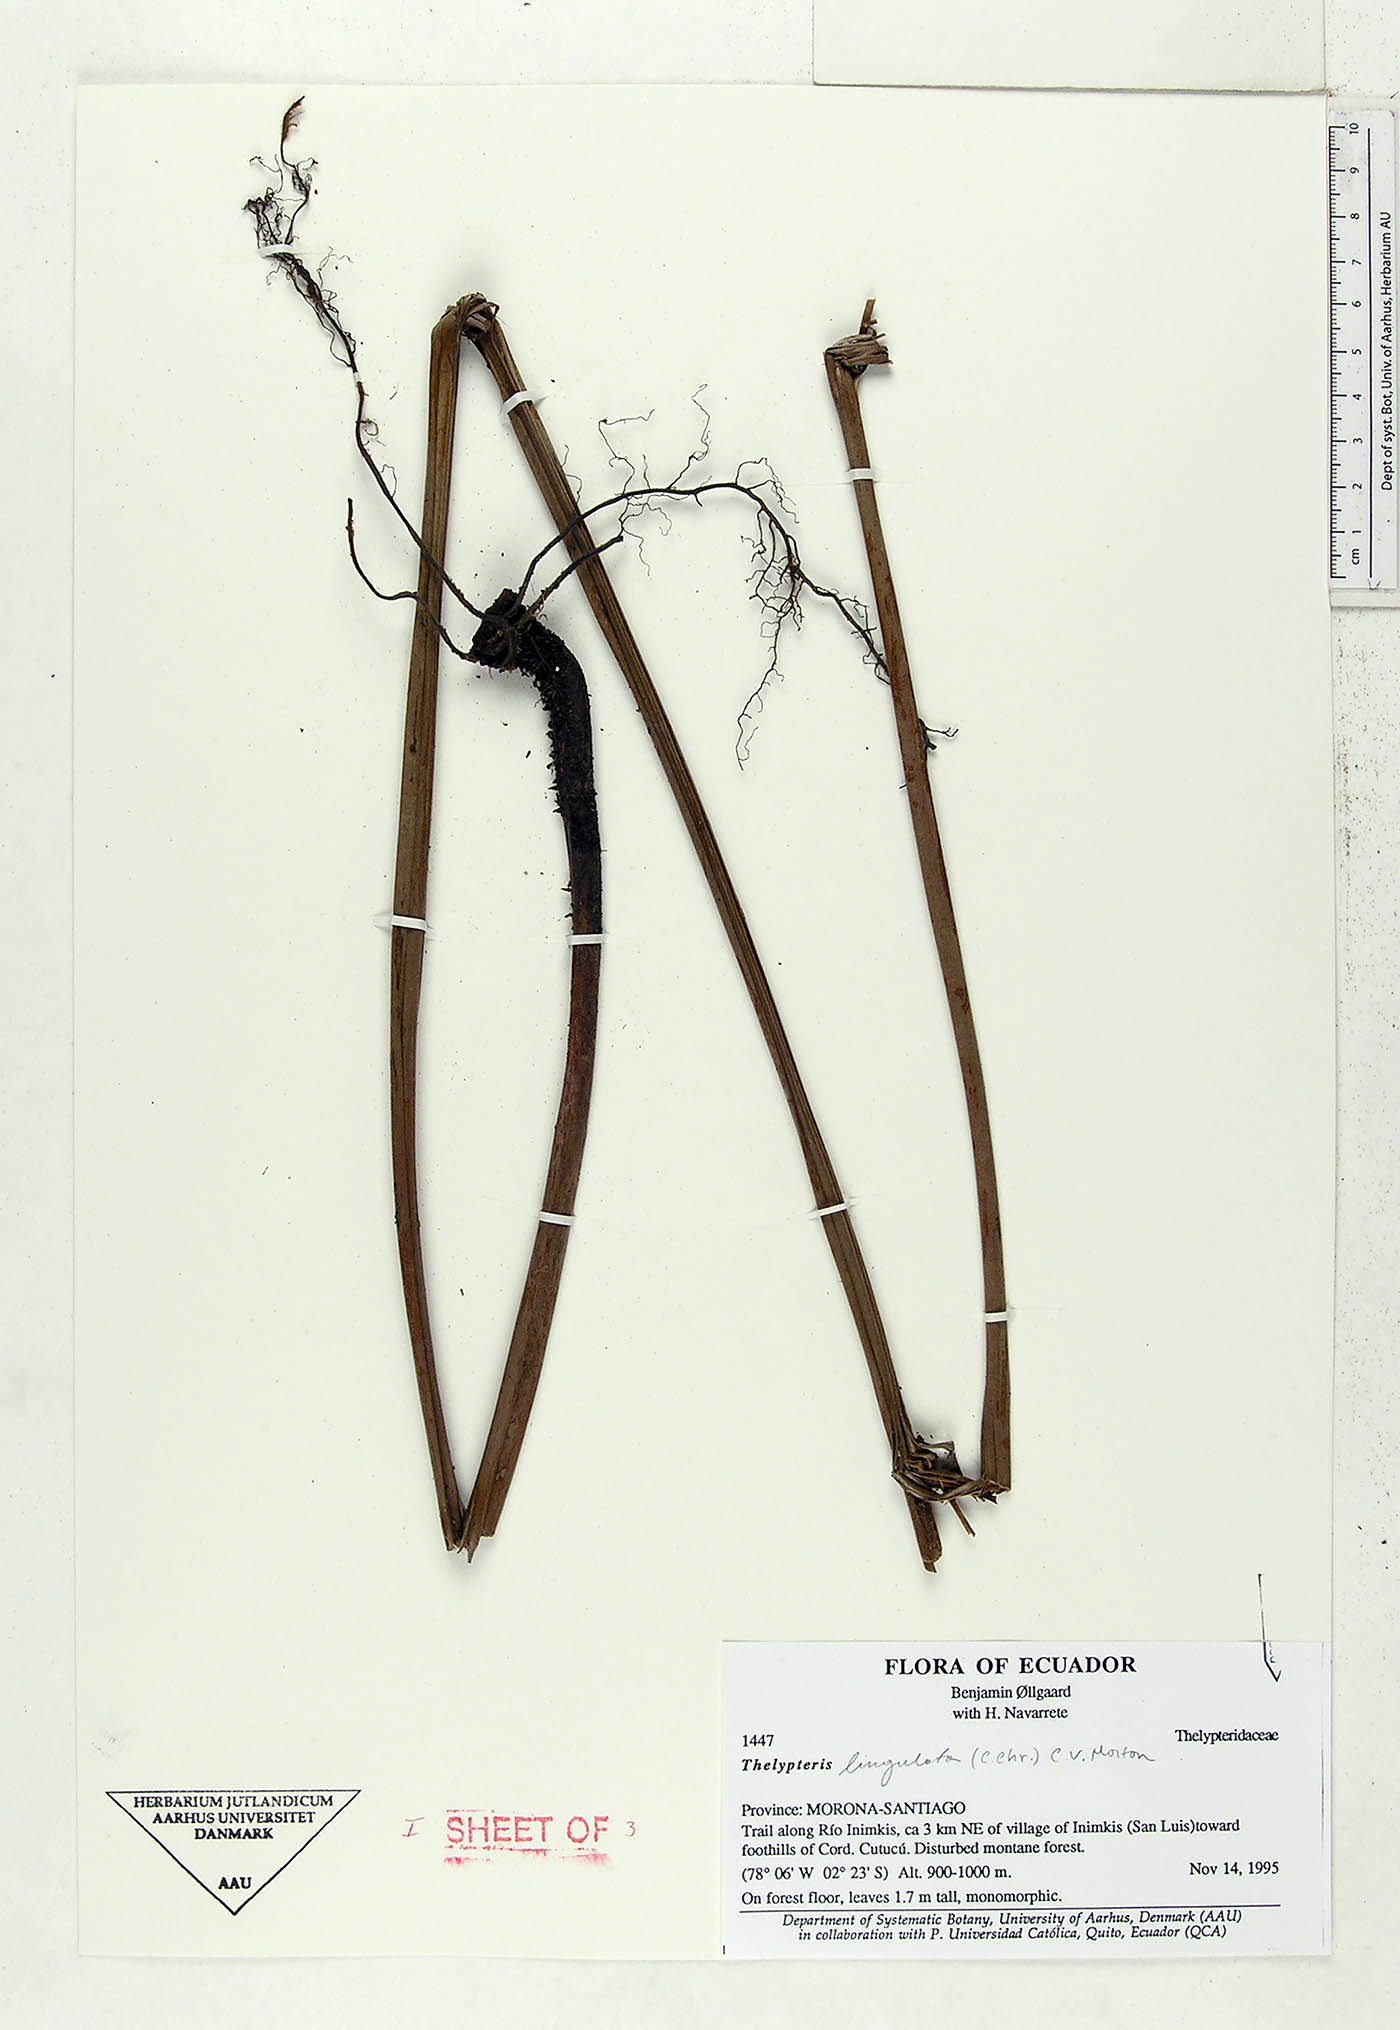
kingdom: Plantae
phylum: Tracheophyta
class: Polypodiopsida
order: Polypodiales
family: Thelypteridaceae
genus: Meniscium
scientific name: Meniscium lingulatum
